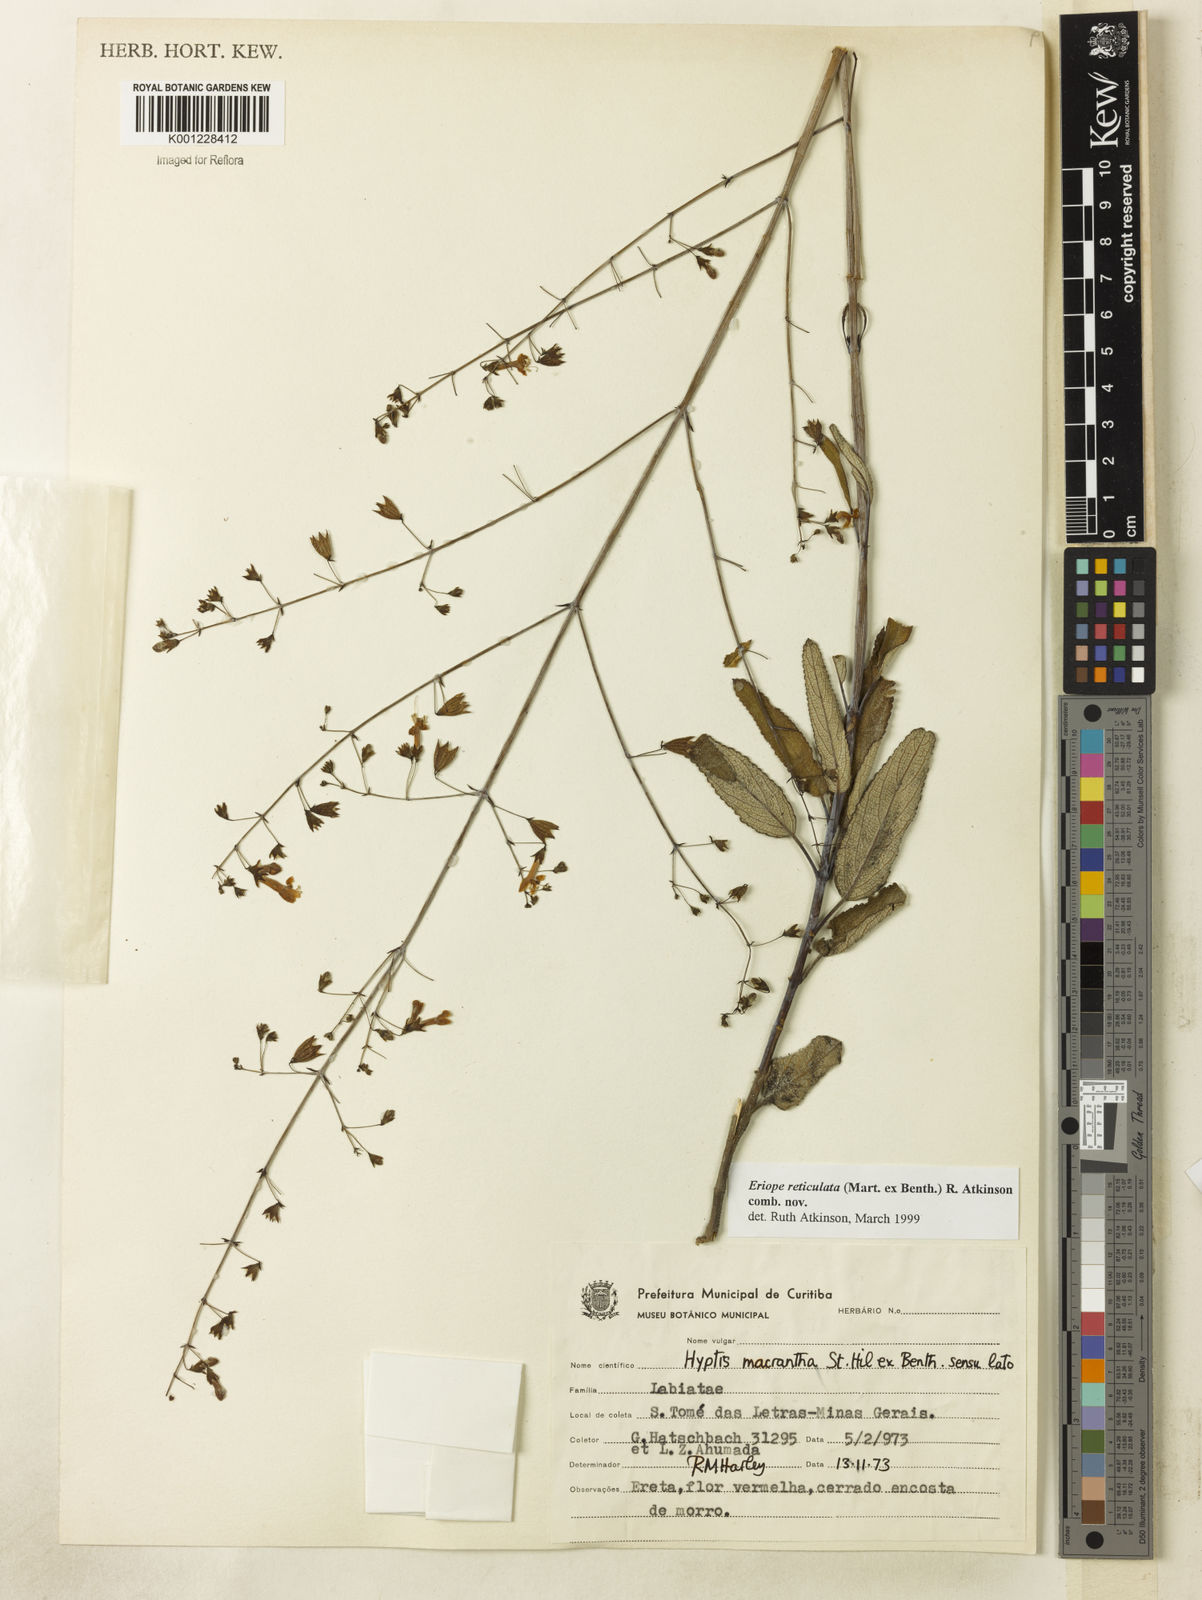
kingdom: Plantae
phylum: Tracheophyta
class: Magnoliopsida
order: Lamiales
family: Lamiaceae
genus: Hypenia
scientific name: Hypenia reticulata
